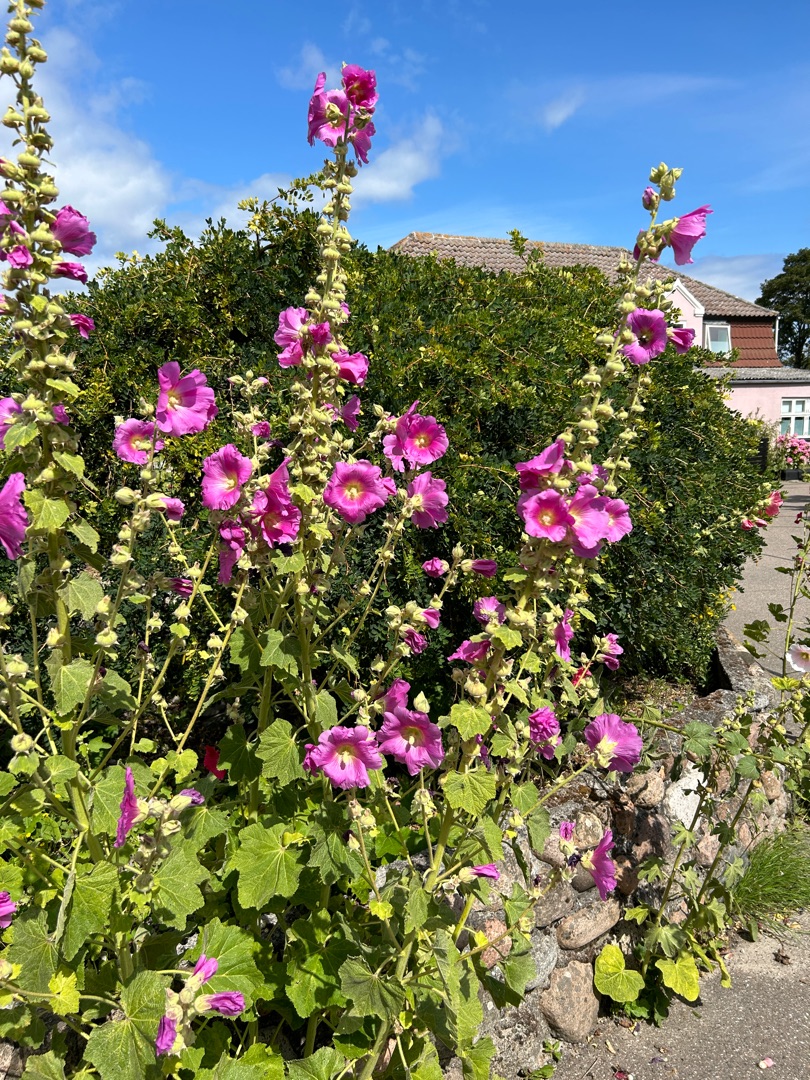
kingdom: Plantae
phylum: Tracheophyta
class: Magnoliopsida
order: Malvales
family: Malvaceae
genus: Alcea
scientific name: Alcea rosea
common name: Have-stokrose
